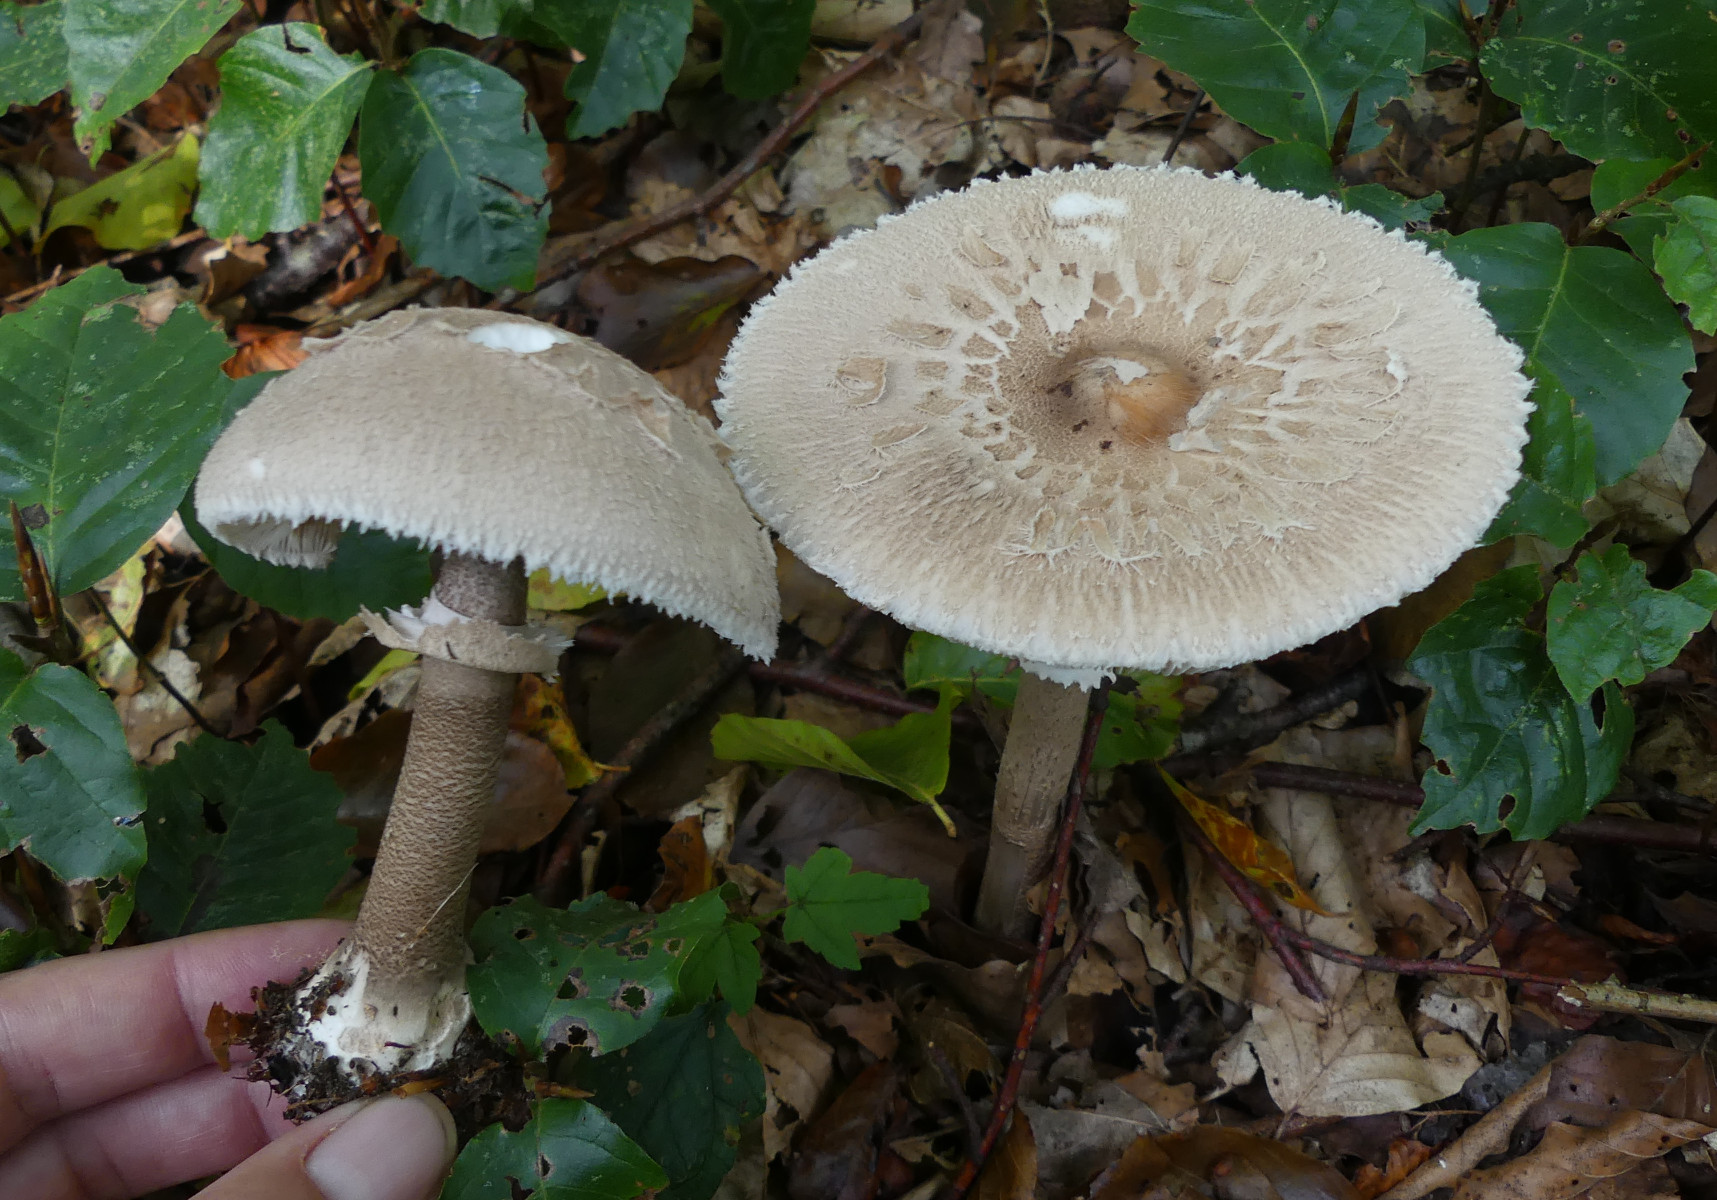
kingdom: Fungi
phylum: Basidiomycota
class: Agaricomycetes
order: Agaricales
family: Agaricaceae
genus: Macrolepiota
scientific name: Macrolepiota mastoidea
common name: puklet kæmpeparasolhat
